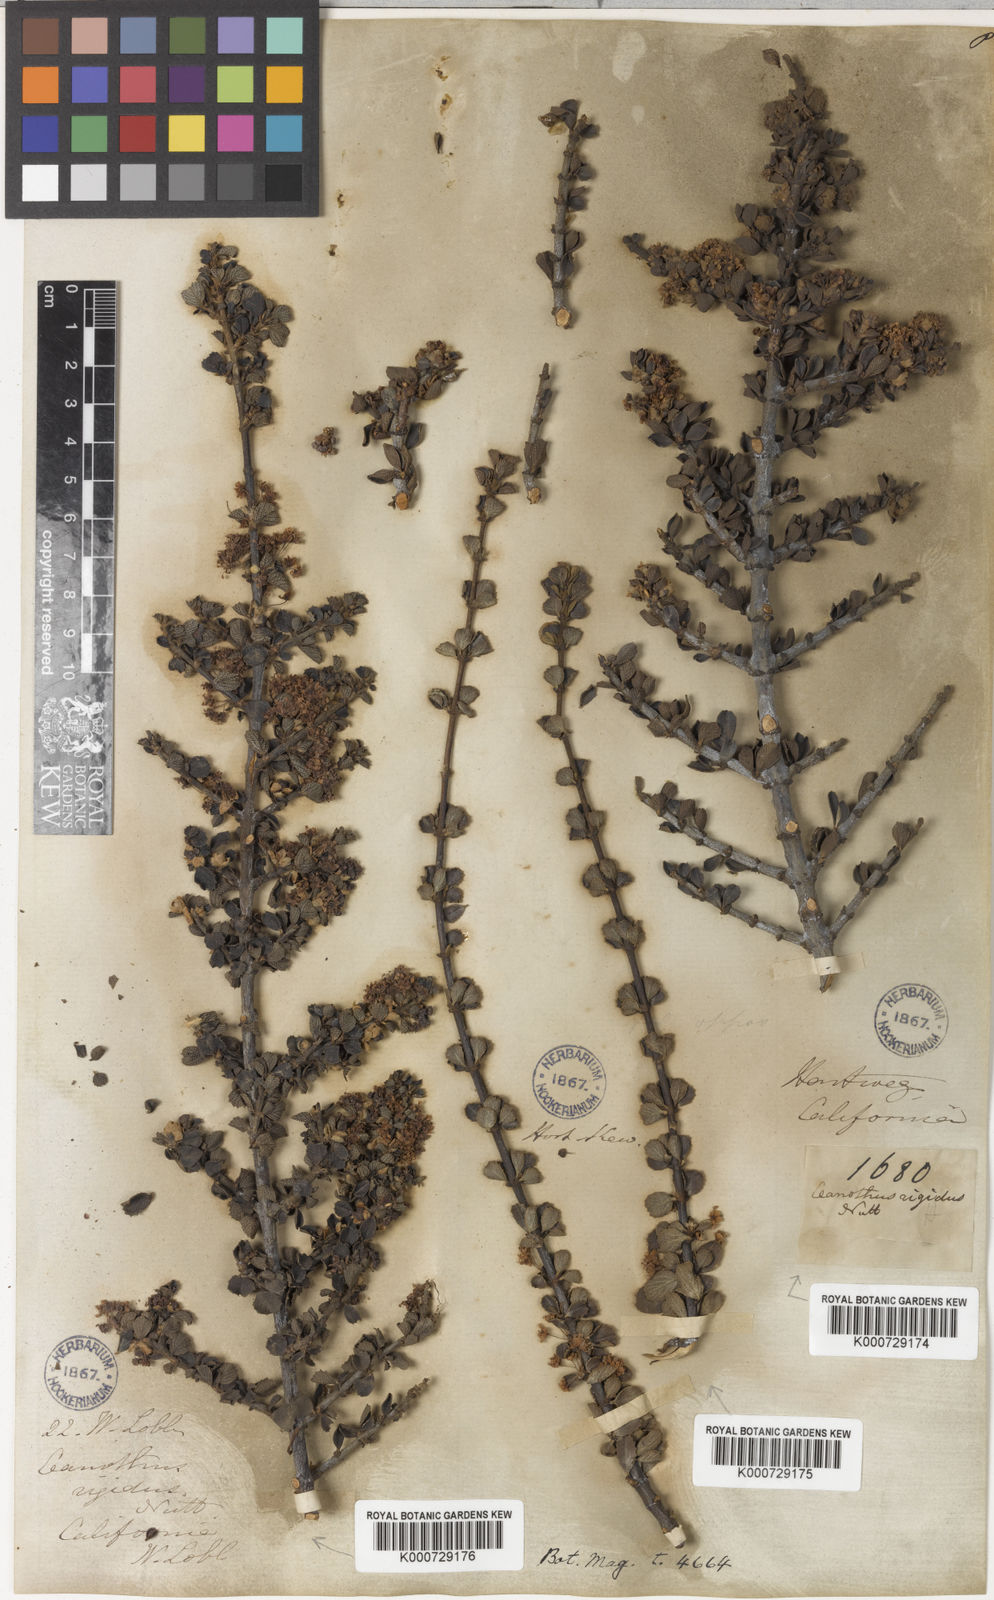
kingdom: Plantae
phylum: Tracheophyta
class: Magnoliopsida
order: Rosales
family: Rhamnaceae
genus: Ceanothus
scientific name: Ceanothus cuneatus
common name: Cuneate ceanothus
